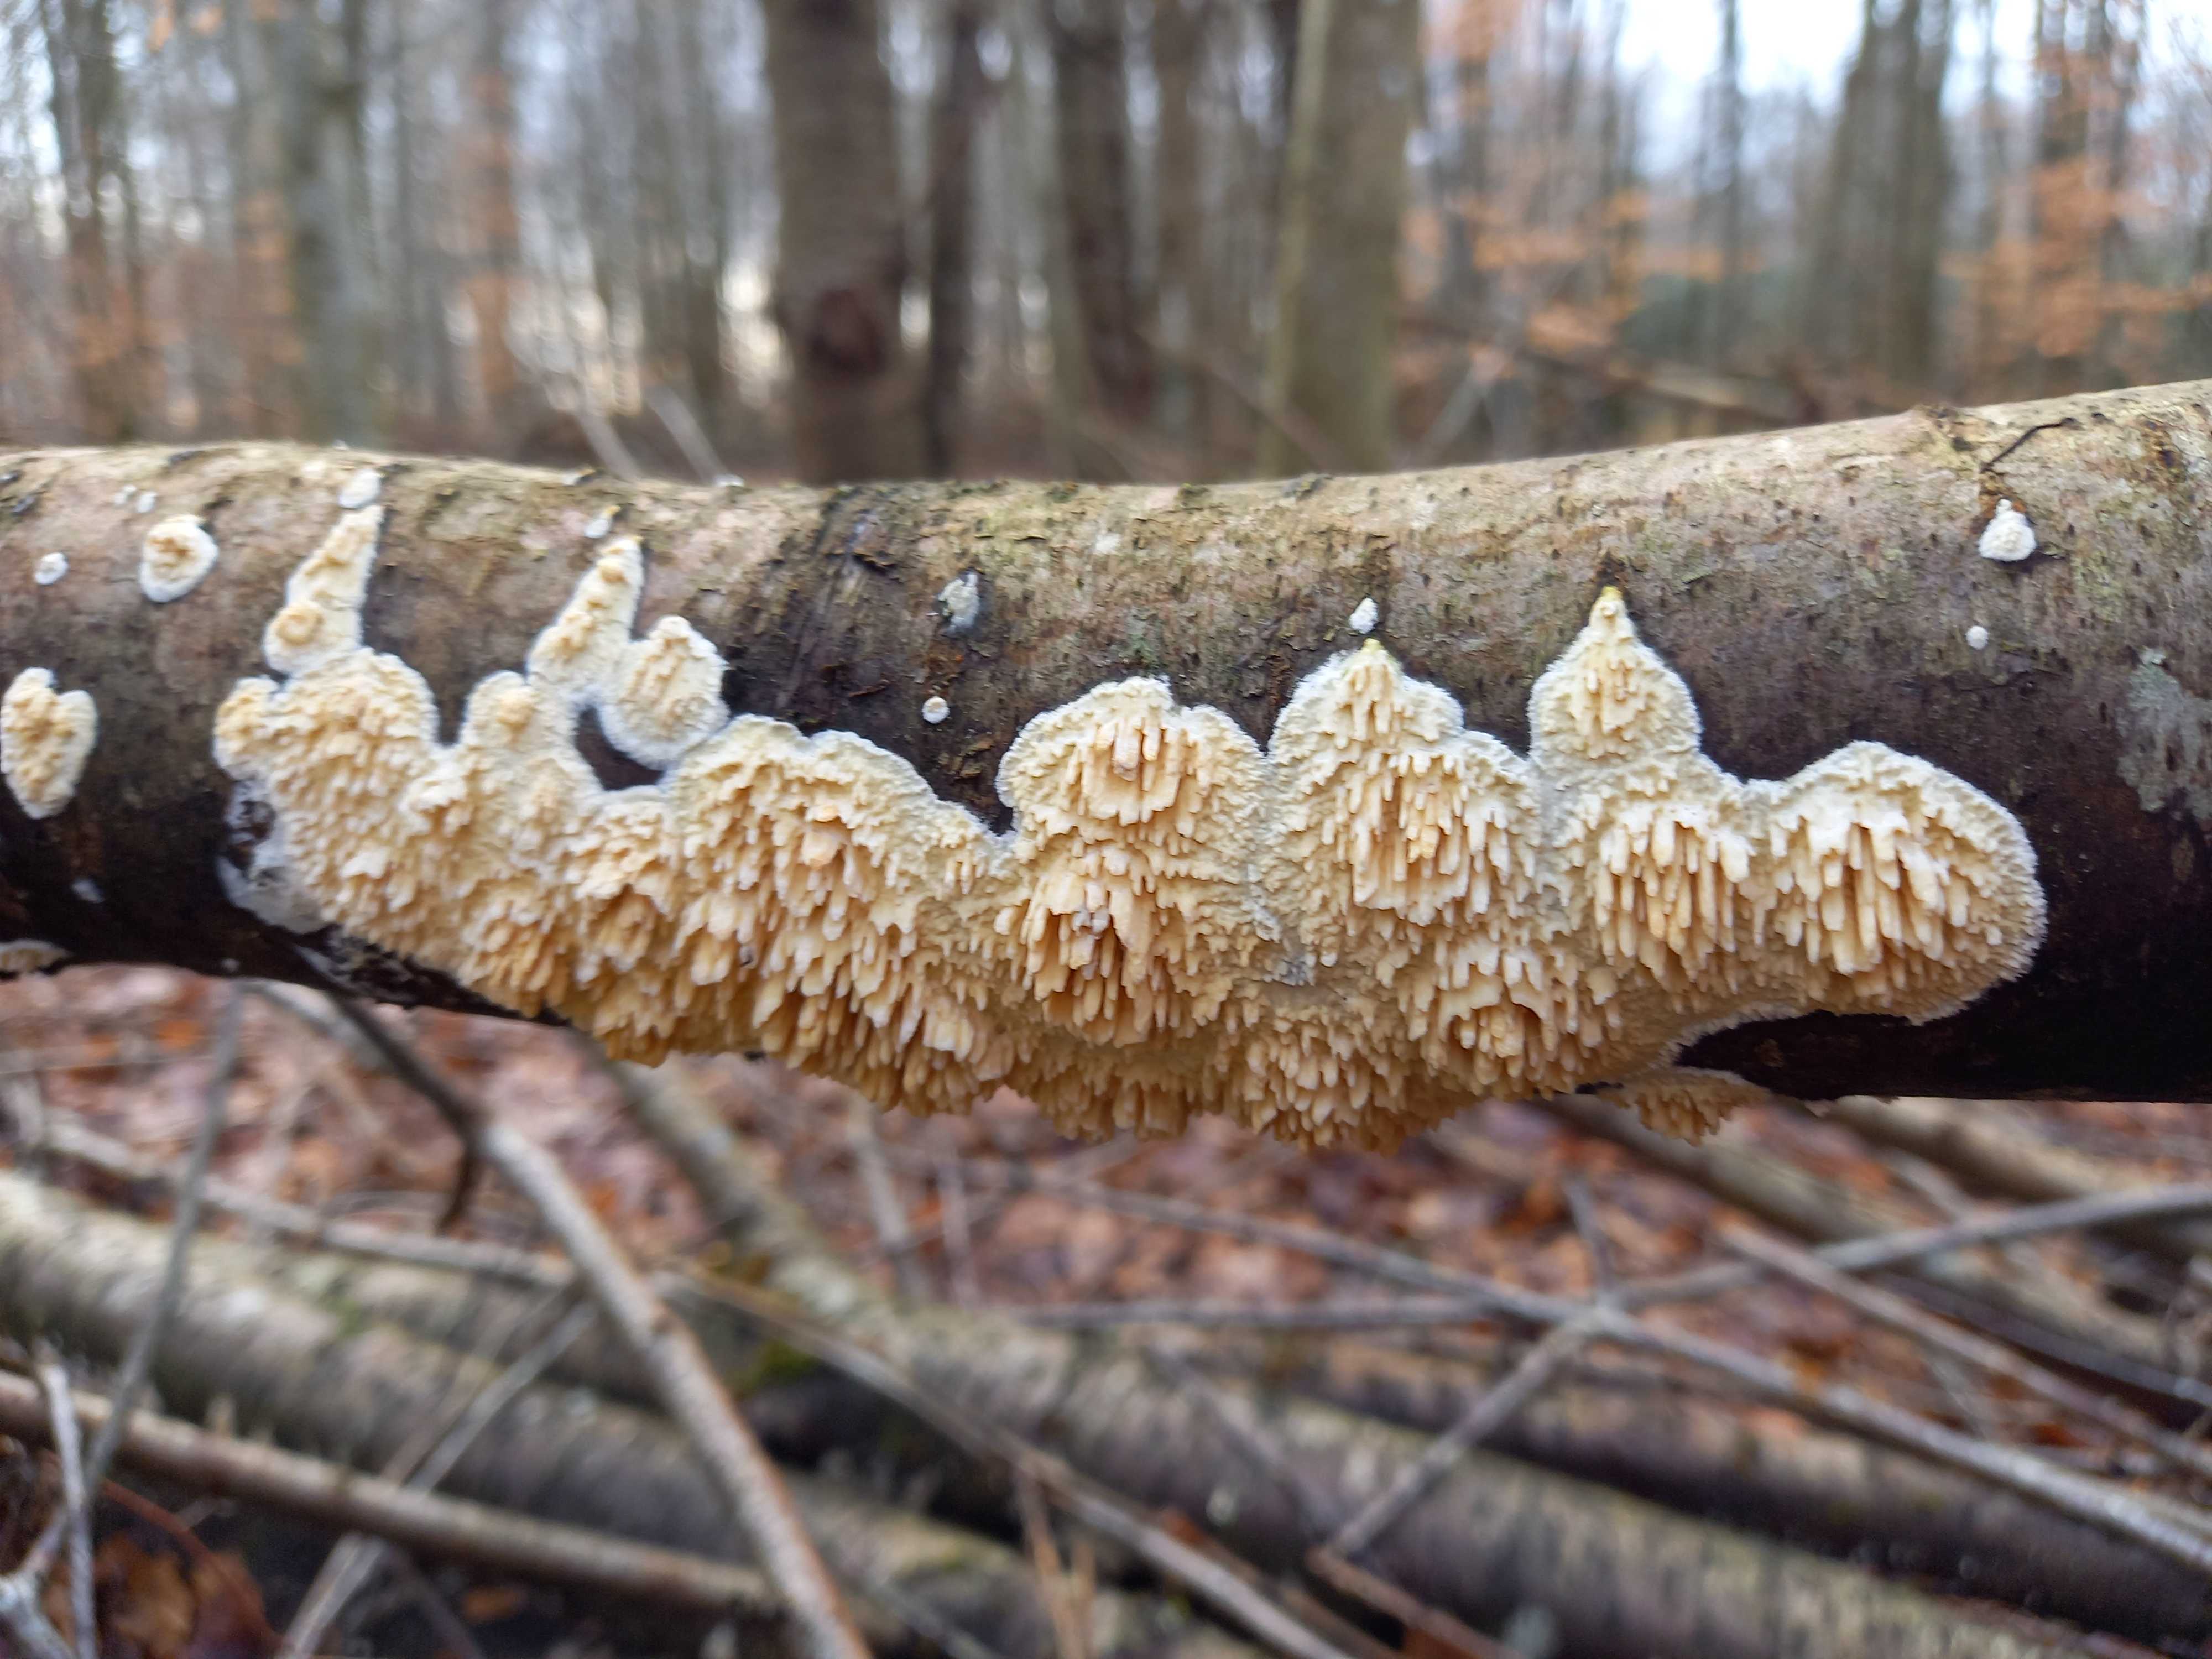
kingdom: Fungi
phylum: Basidiomycota
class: Agaricomycetes
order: Hymenochaetales
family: Schizoporaceae
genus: Xylodon
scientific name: Xylodon radula
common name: grovtandet kalkskind
